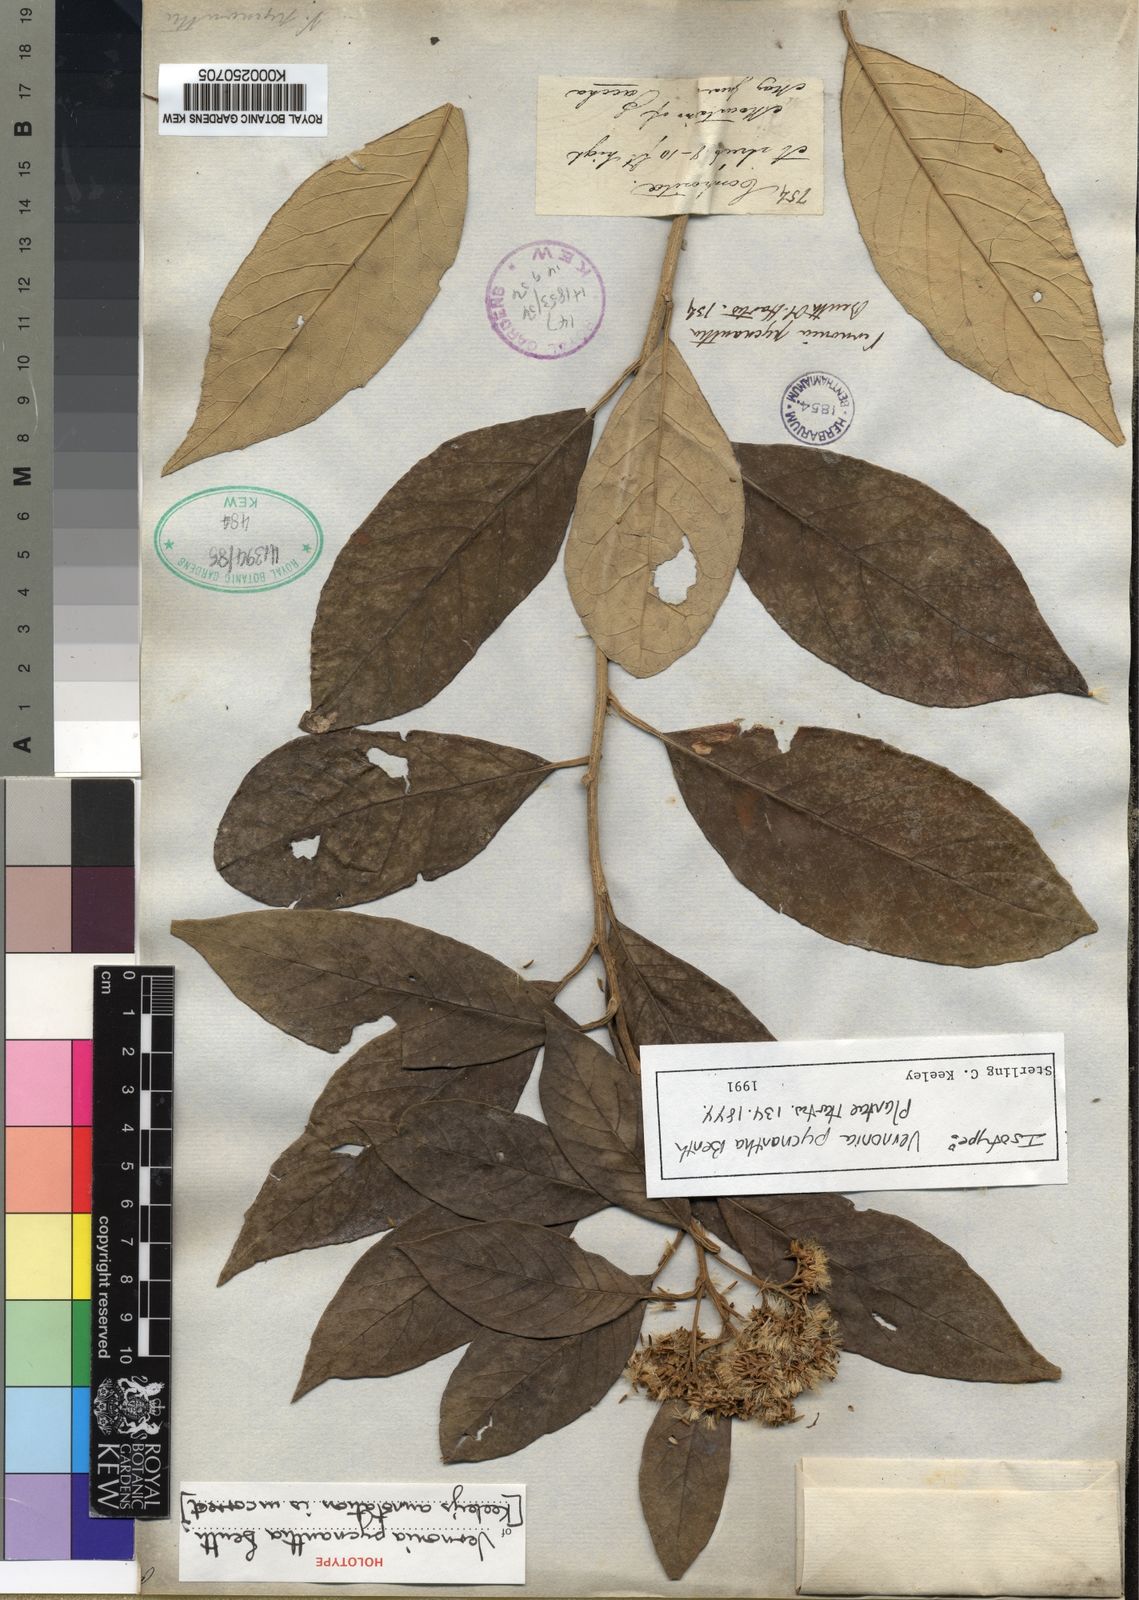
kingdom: Plantae
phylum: Tracheophyta
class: Magnoliopsida
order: Asterales
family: Asteraceae
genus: Critoniopsis
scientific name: Critoniopsis pycnantha
